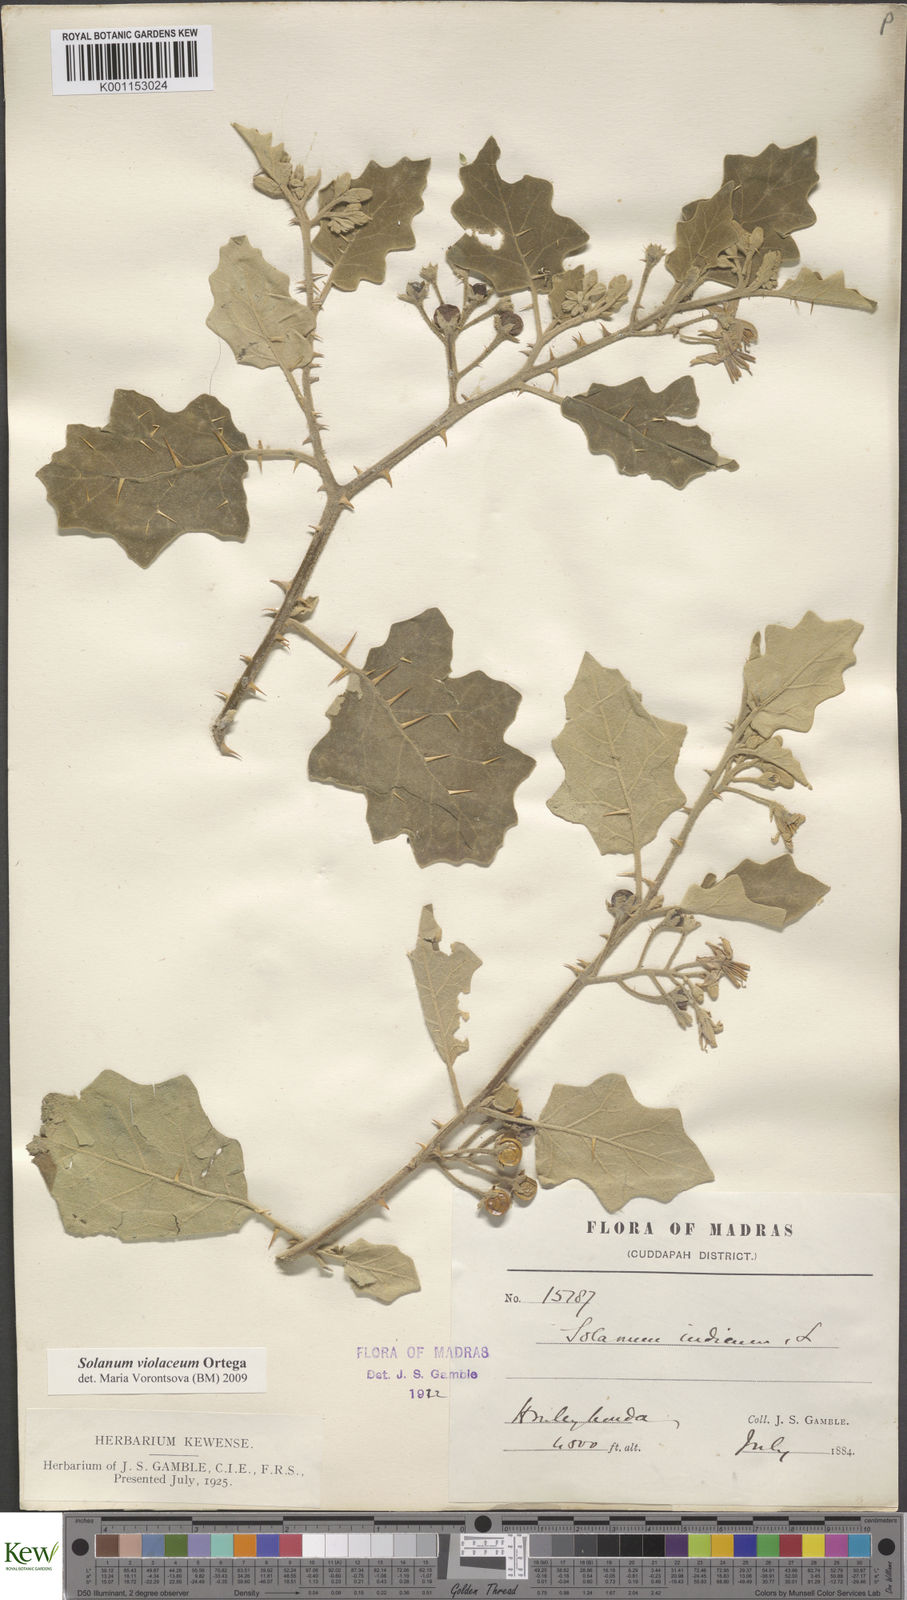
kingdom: Plantae
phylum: Tracheophyta
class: Magnoliopsida
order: Solanales
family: Solanaceae
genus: Solanum
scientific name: Solanum violaceum
